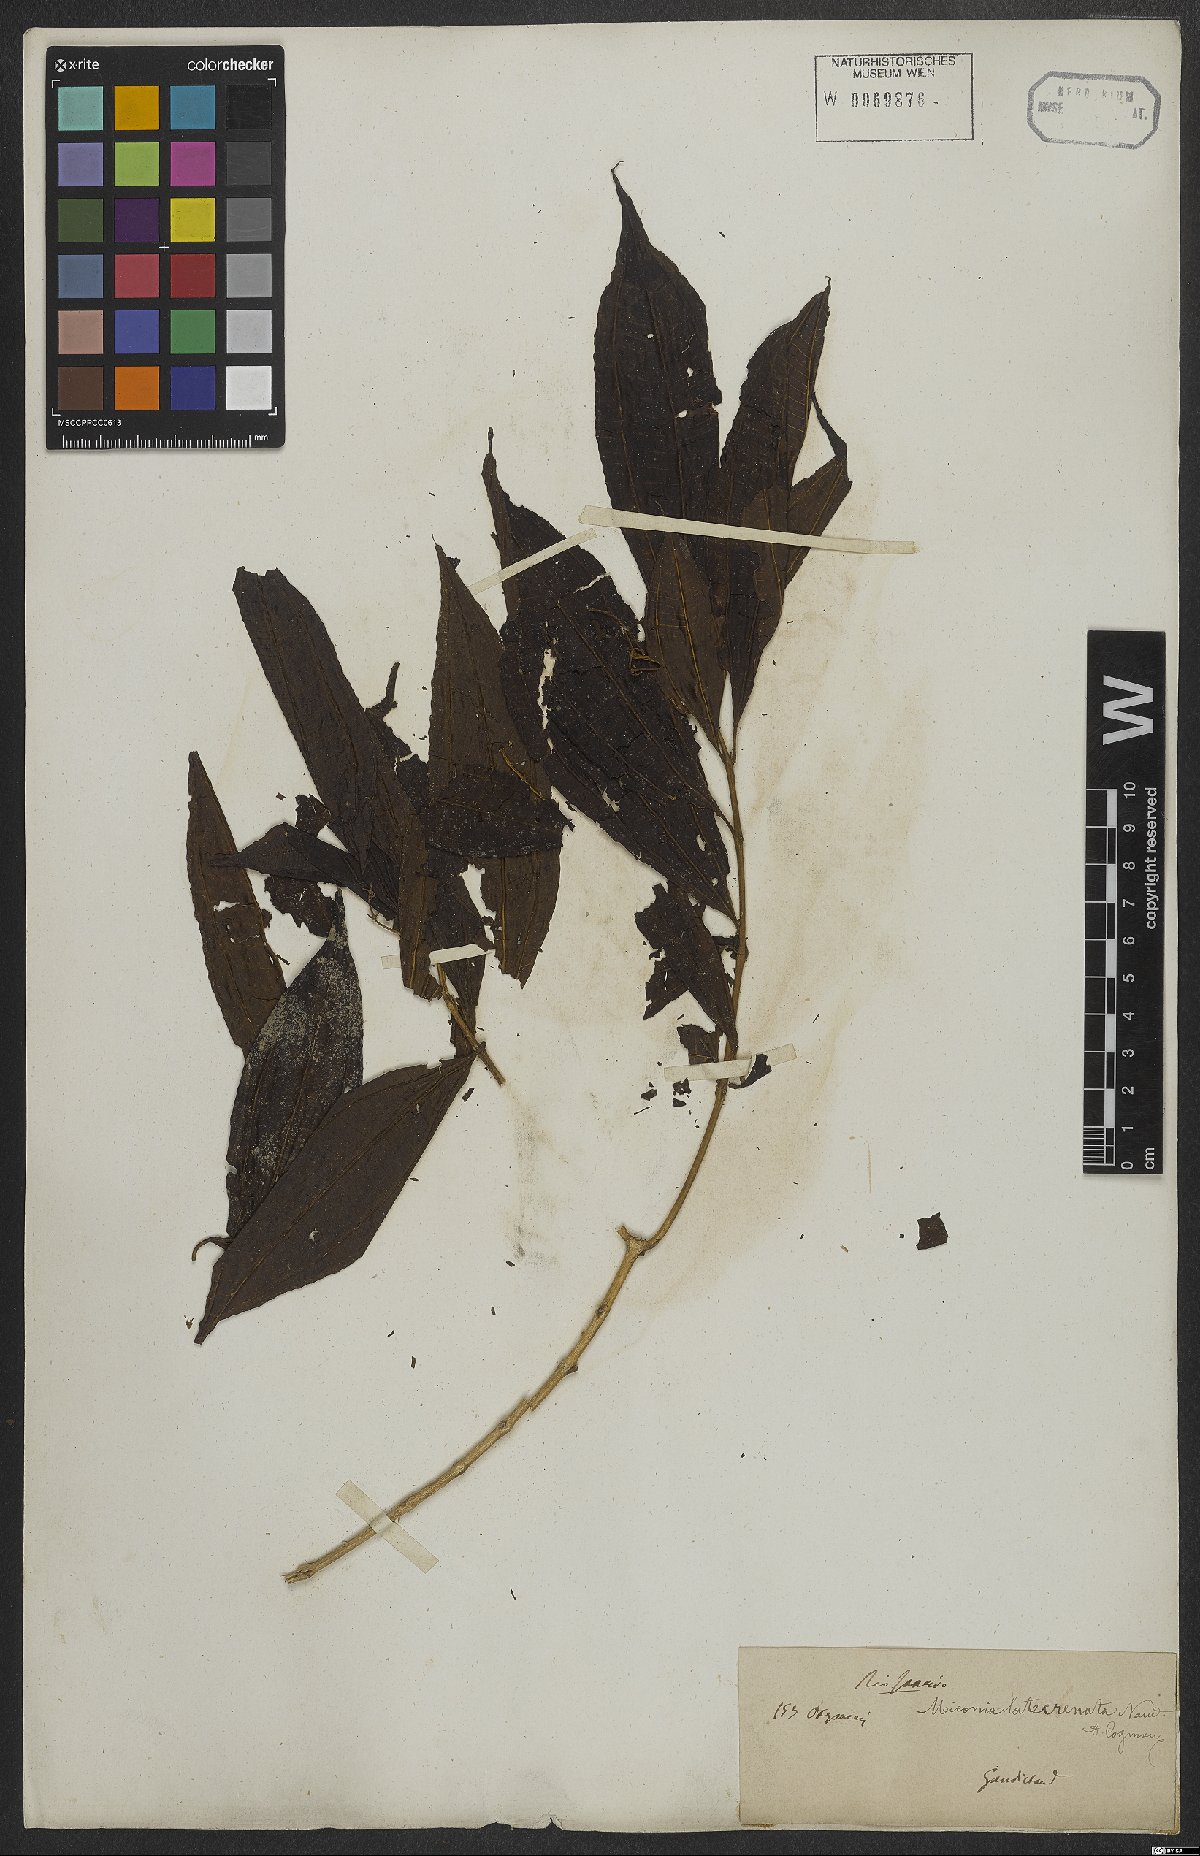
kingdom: Plantae
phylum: Tracheophyta
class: Magnoliopsida
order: Myrtales
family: Melastomataceae
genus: Miconia
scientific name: Miconia latecrenata
